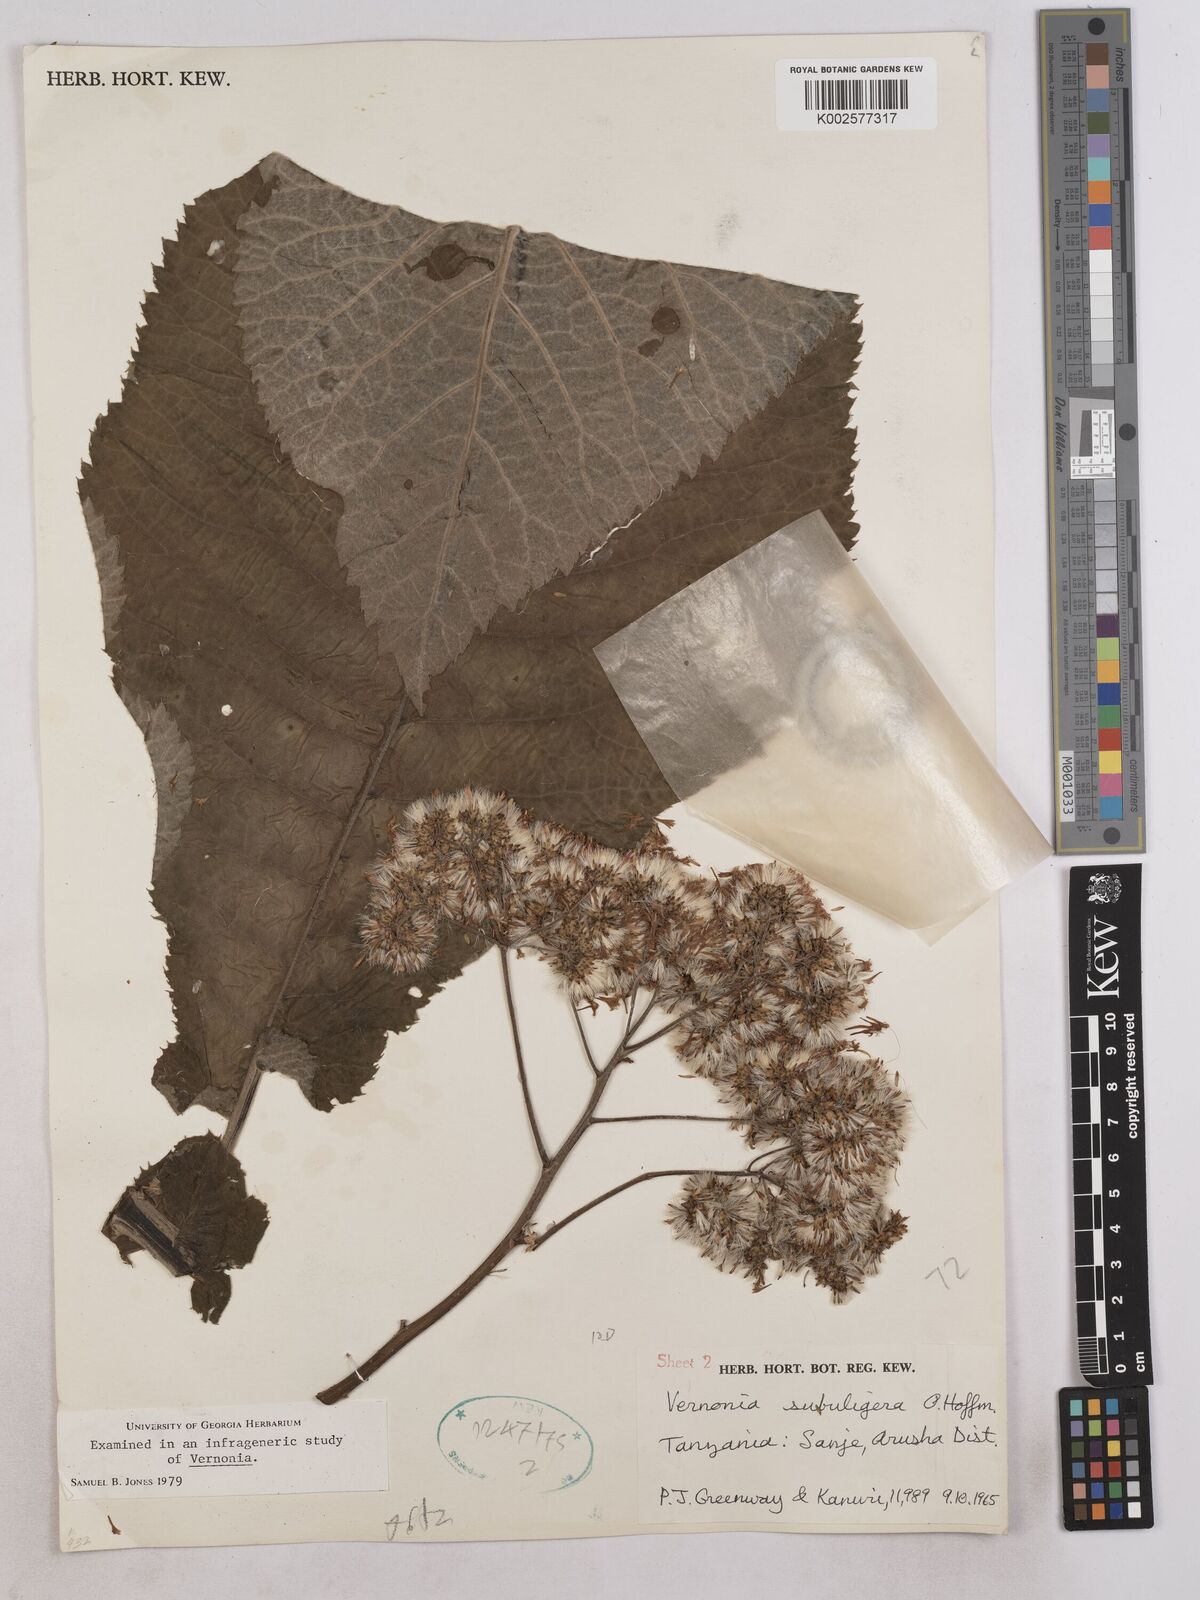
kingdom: Plantae
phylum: Tracheophyta
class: Magnoliopsida
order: Asterales
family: Asteraceae
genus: Gymnanthemum
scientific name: Gymnanthemum myrianthum
